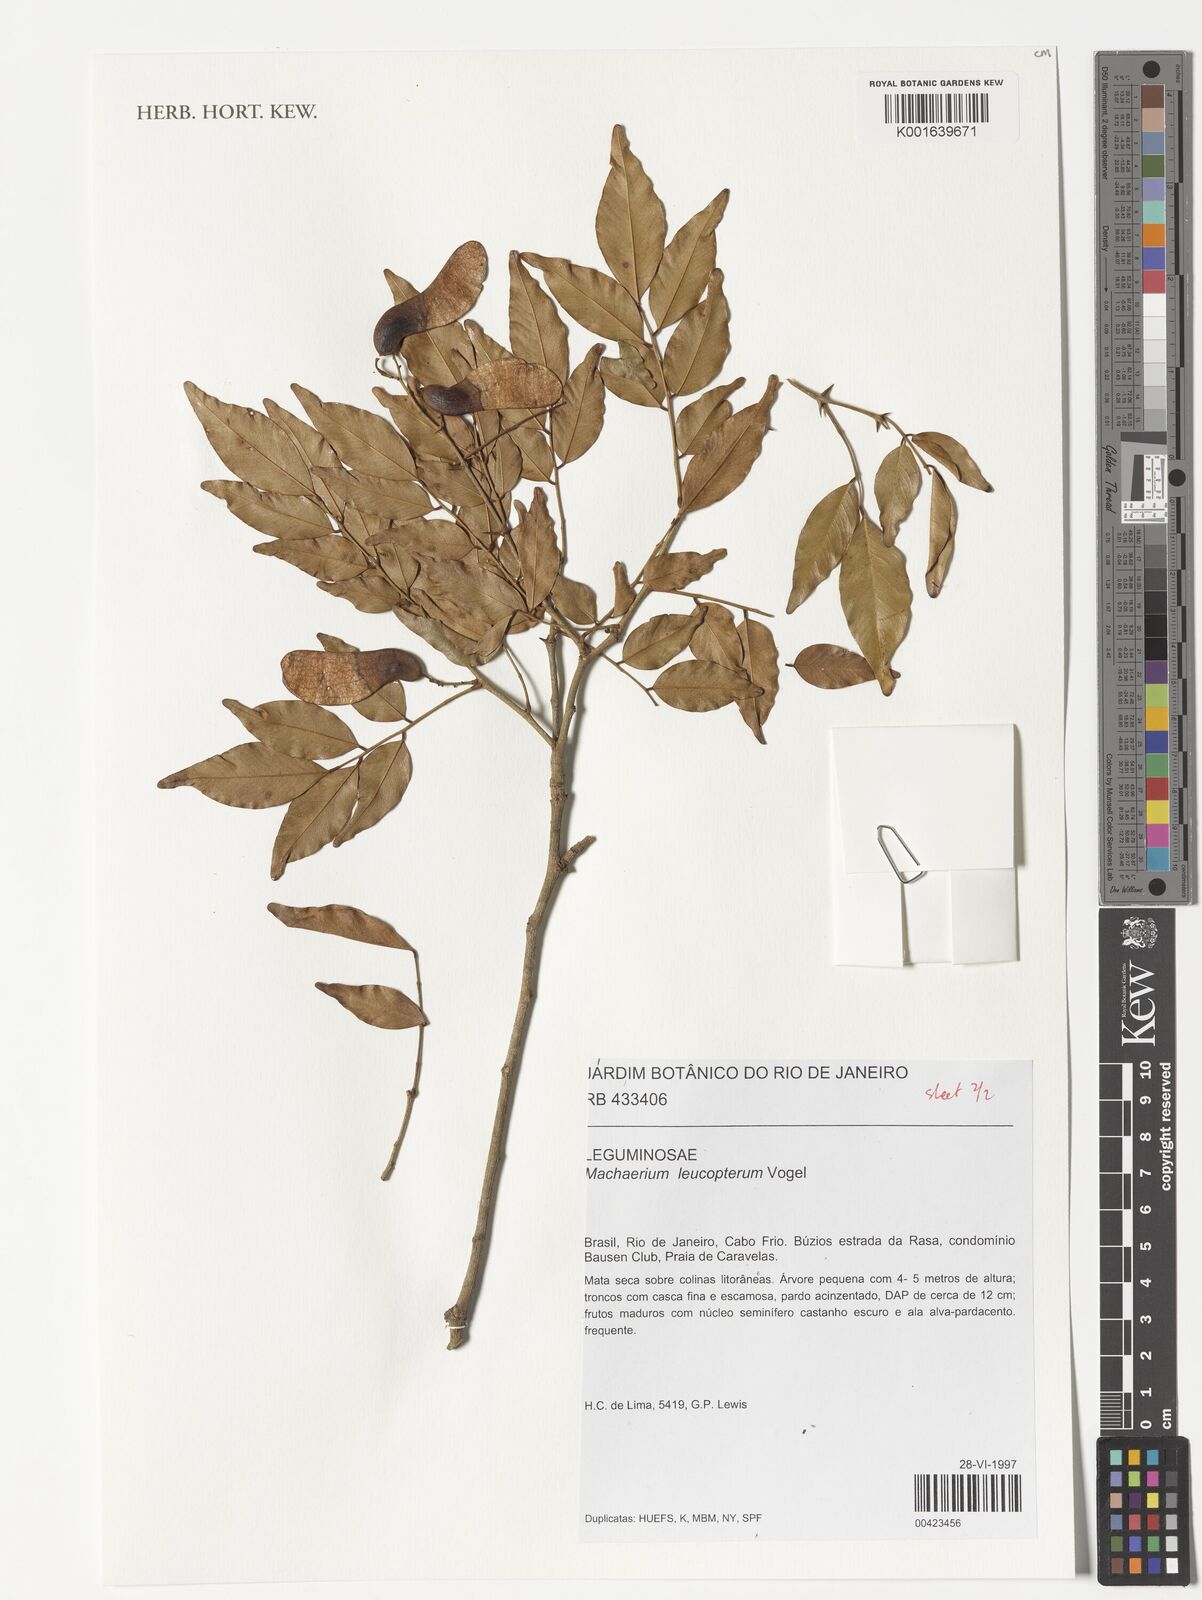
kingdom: Plantae
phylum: Tracheophyta
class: Magnoliopsida
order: Fabales
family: Fabaceae
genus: Machaerium
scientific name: Machaerium leucopterum
